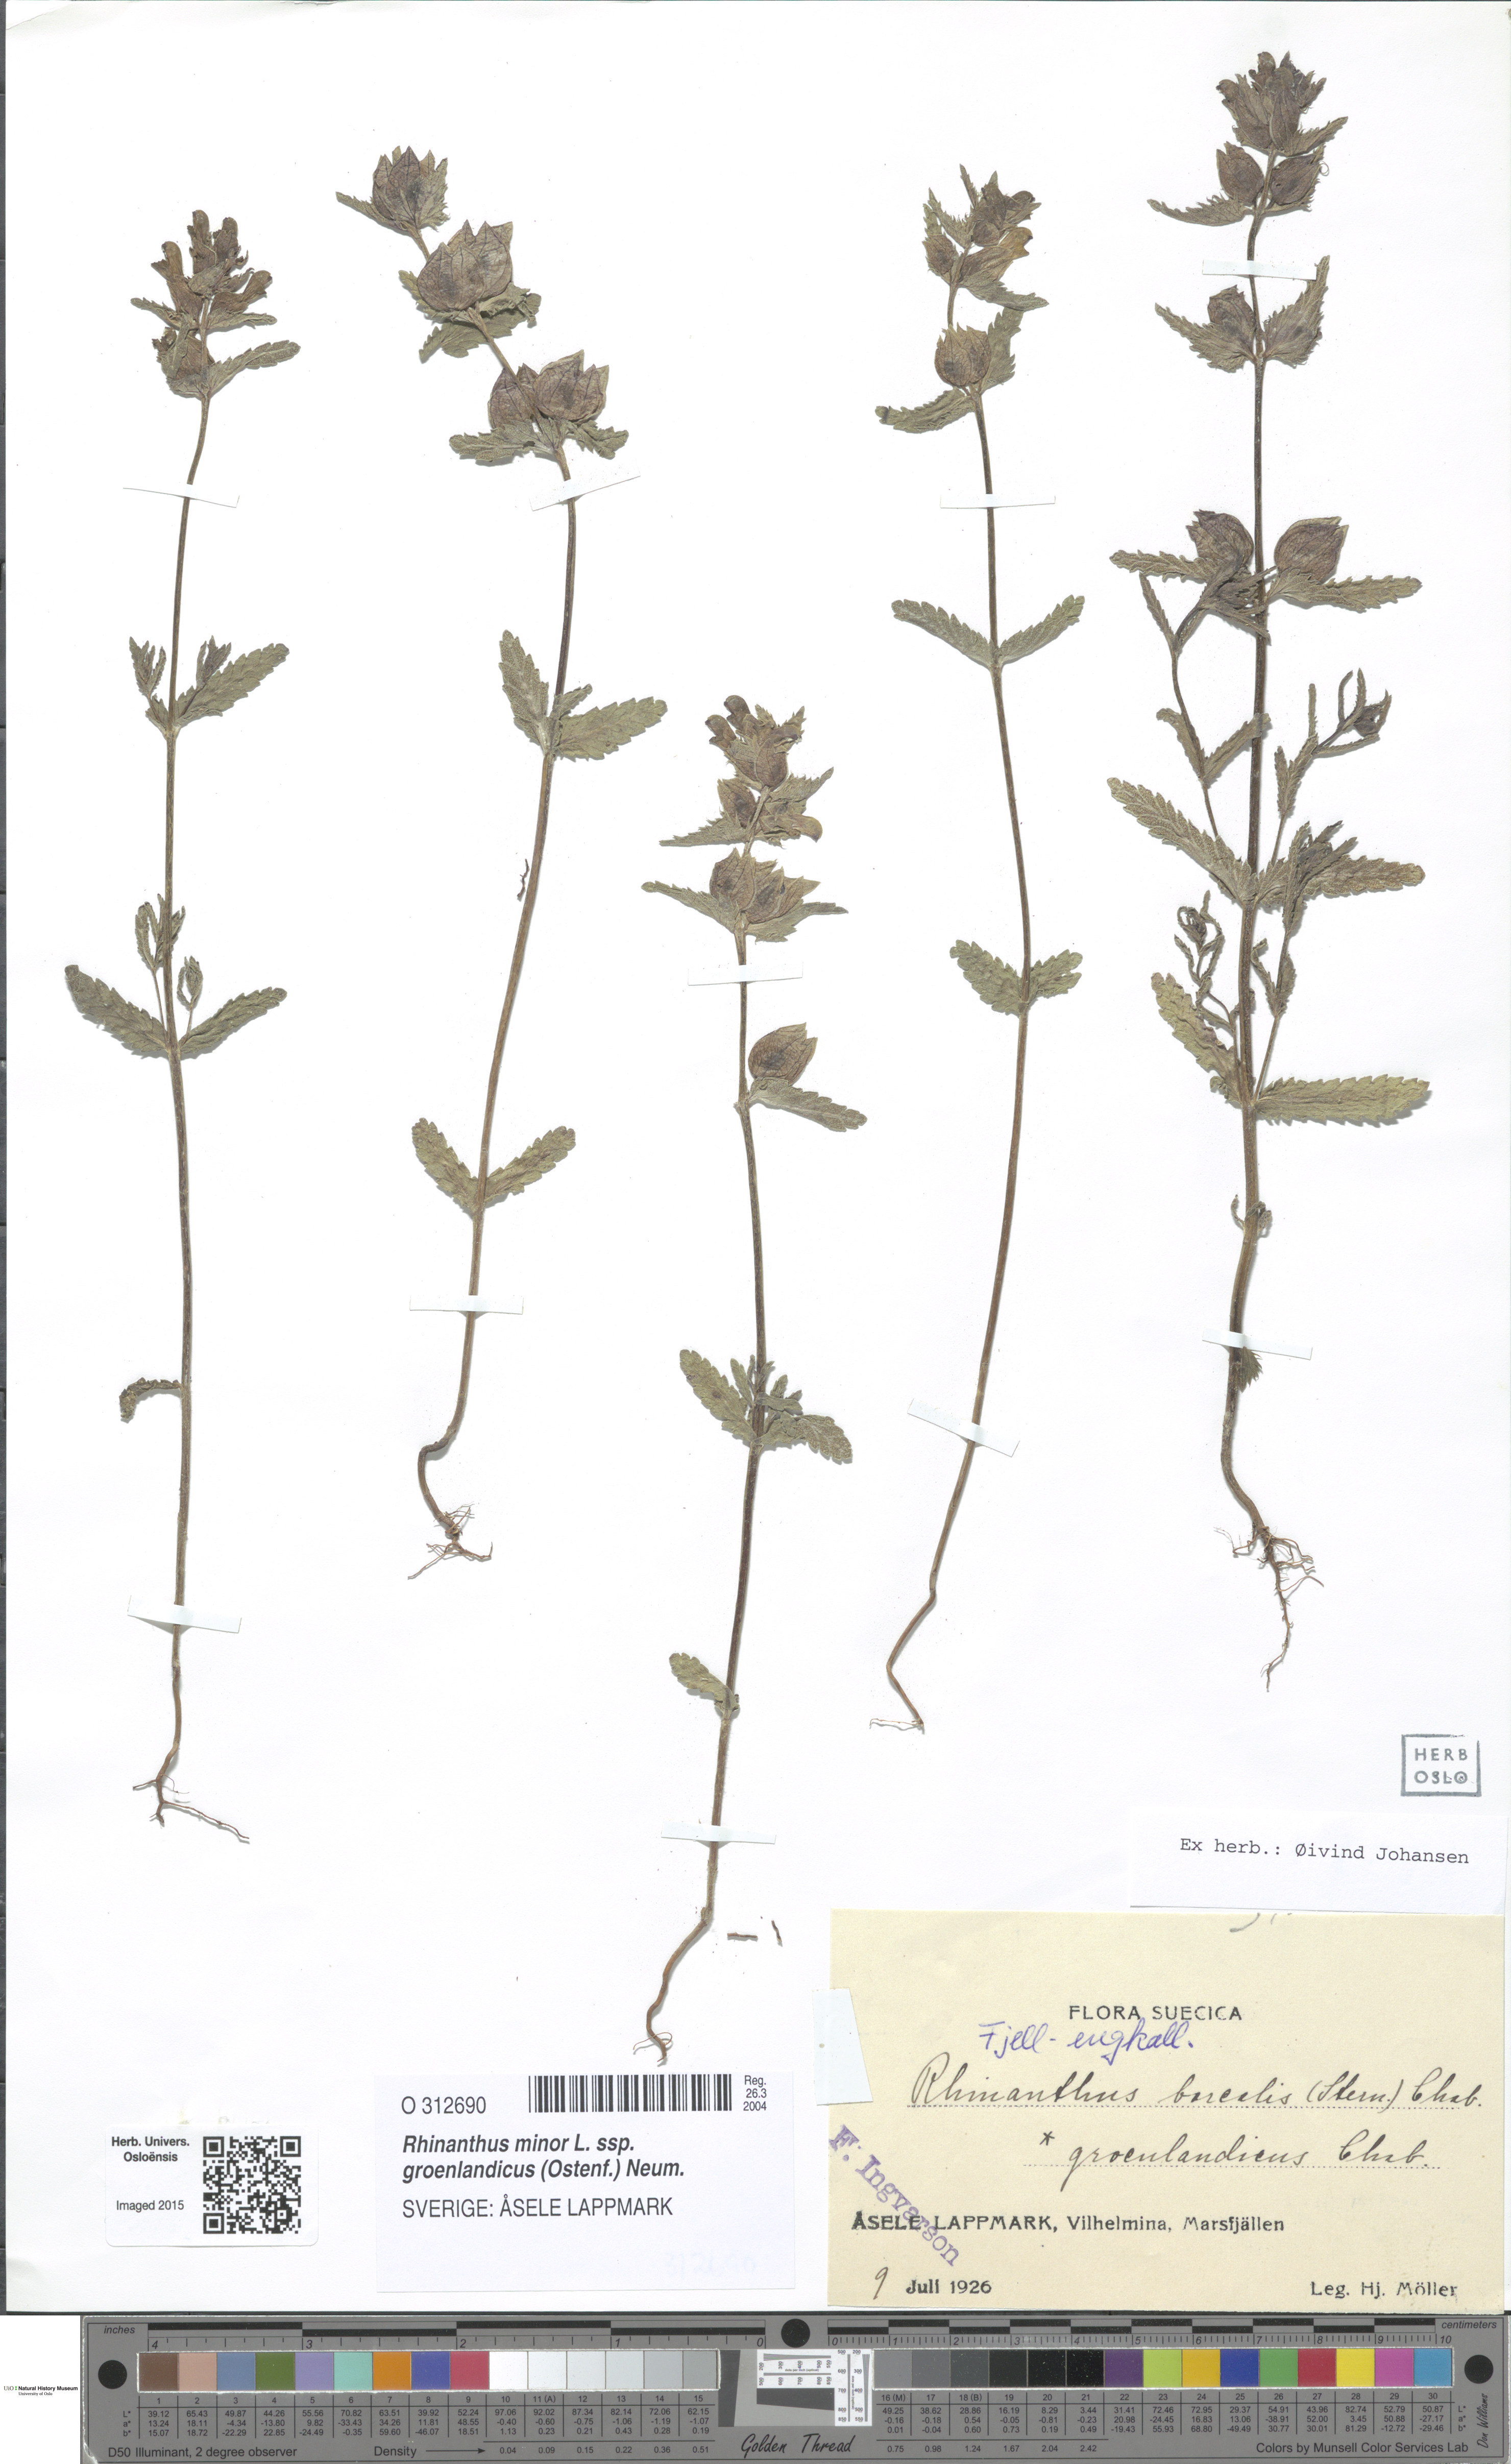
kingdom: Plantae
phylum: Tracheophyta
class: Magnoliopsida
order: Lamiales
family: Orobanchaceae
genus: Rhinanthus
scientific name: Rhinanthus groenlandicus
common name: Little yellow rattle
